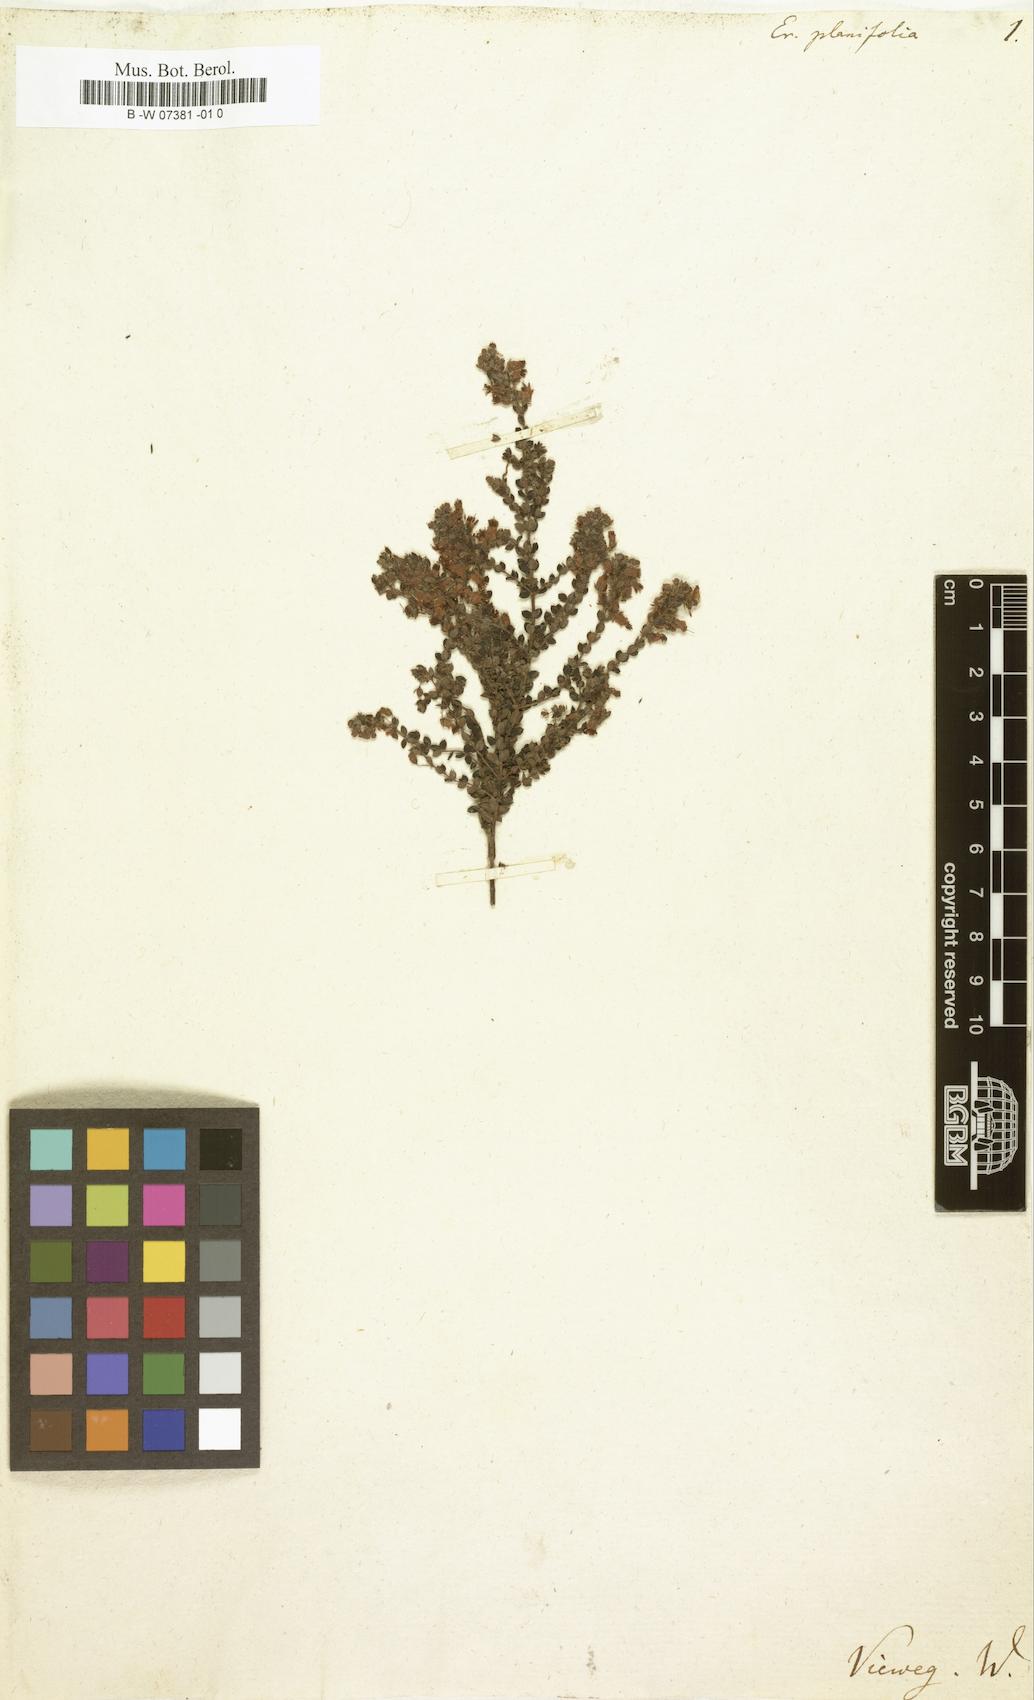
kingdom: Plantae
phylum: Tracheophyta
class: Magnoliopsida
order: Ericales
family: Ericaceae
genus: Erica
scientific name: Erica planifolia
